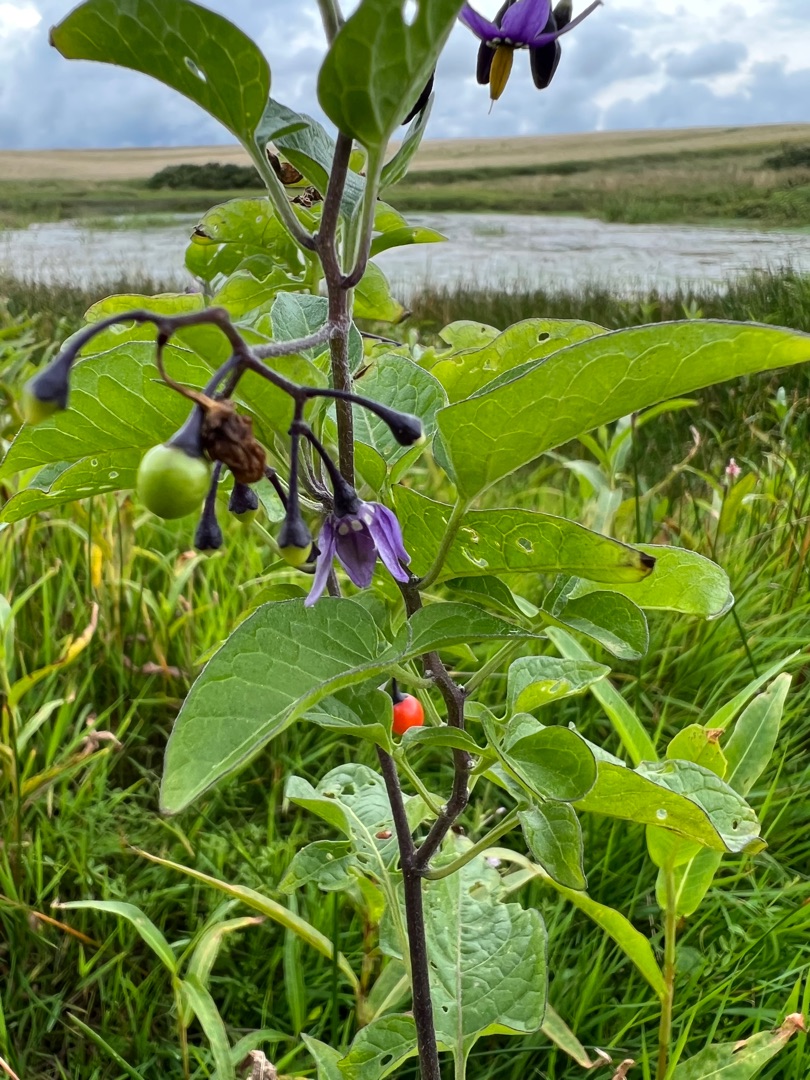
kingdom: Plantae
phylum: Tracheophyta
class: Magnoliopsida
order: Solanales
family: Solanaceae
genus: Solanum
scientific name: Solanum dulcamara
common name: Bittersød natskygge
